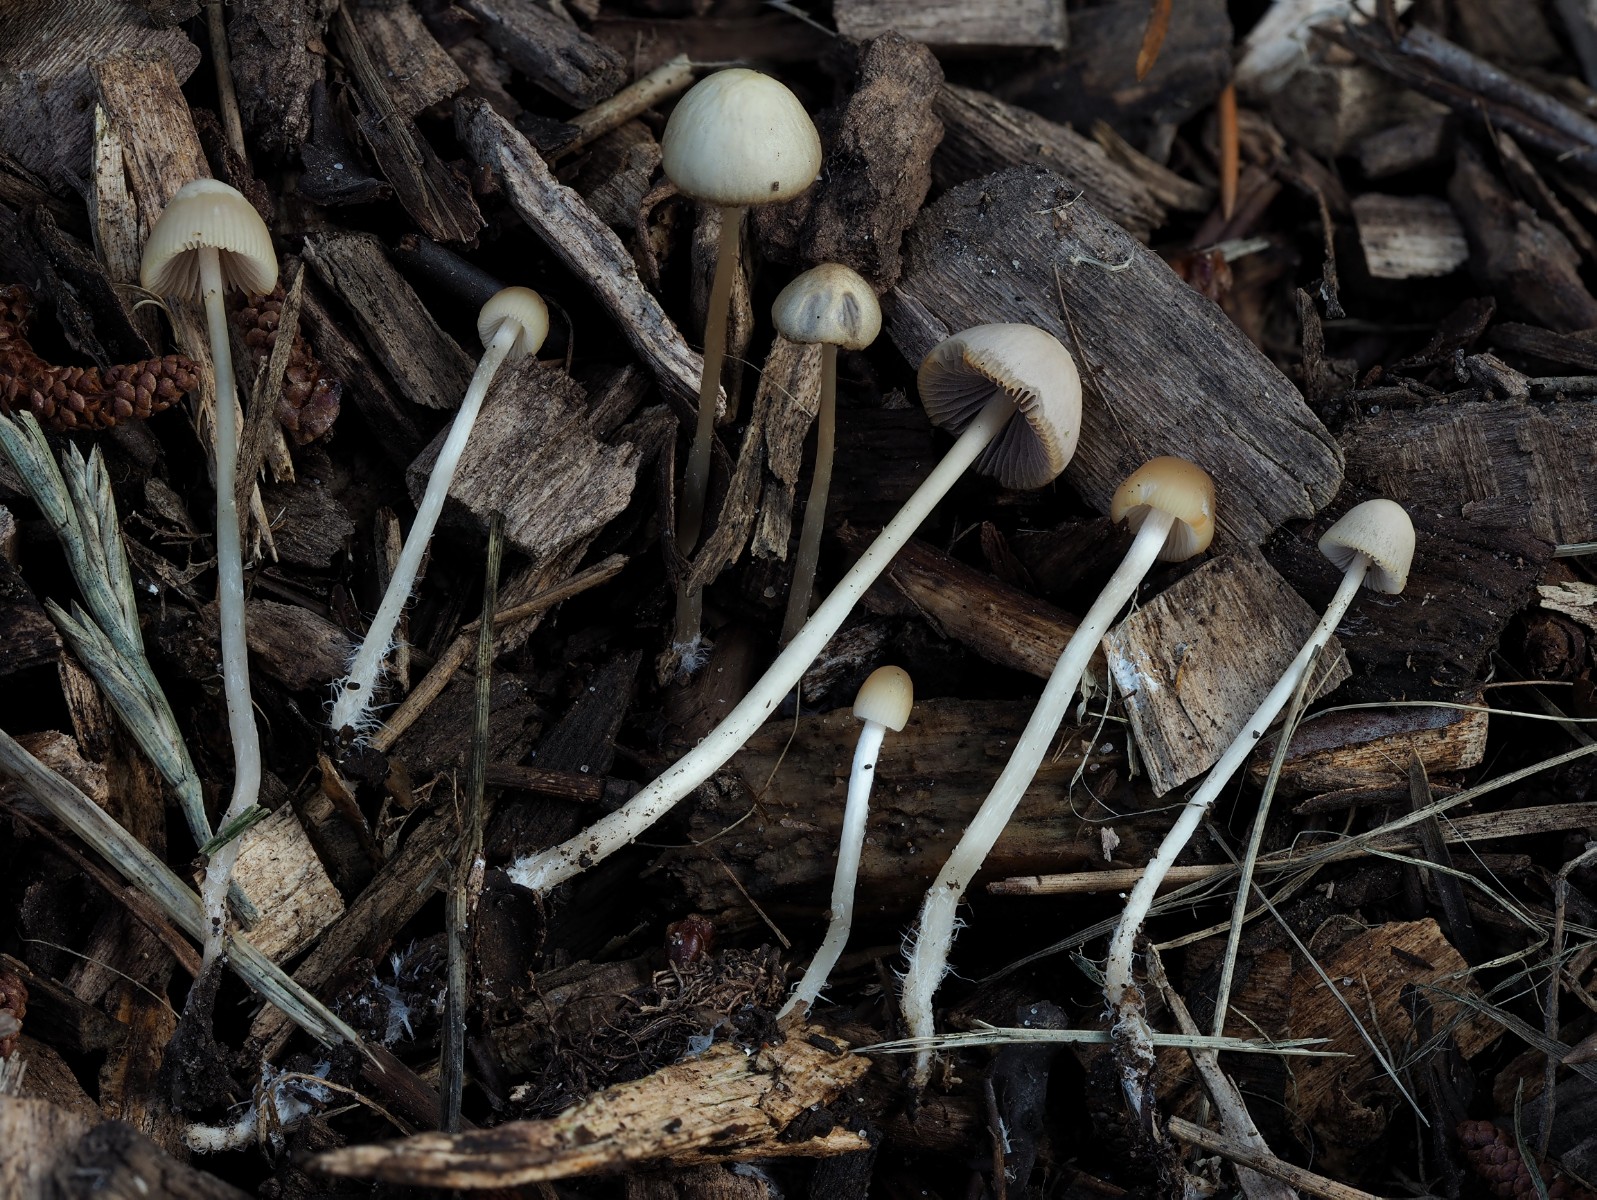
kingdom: Fungi
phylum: Basidiomycota
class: Agaricomycetes
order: Agaricales
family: Psathyrellaceae
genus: Psathyrella
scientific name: Psathyrella
